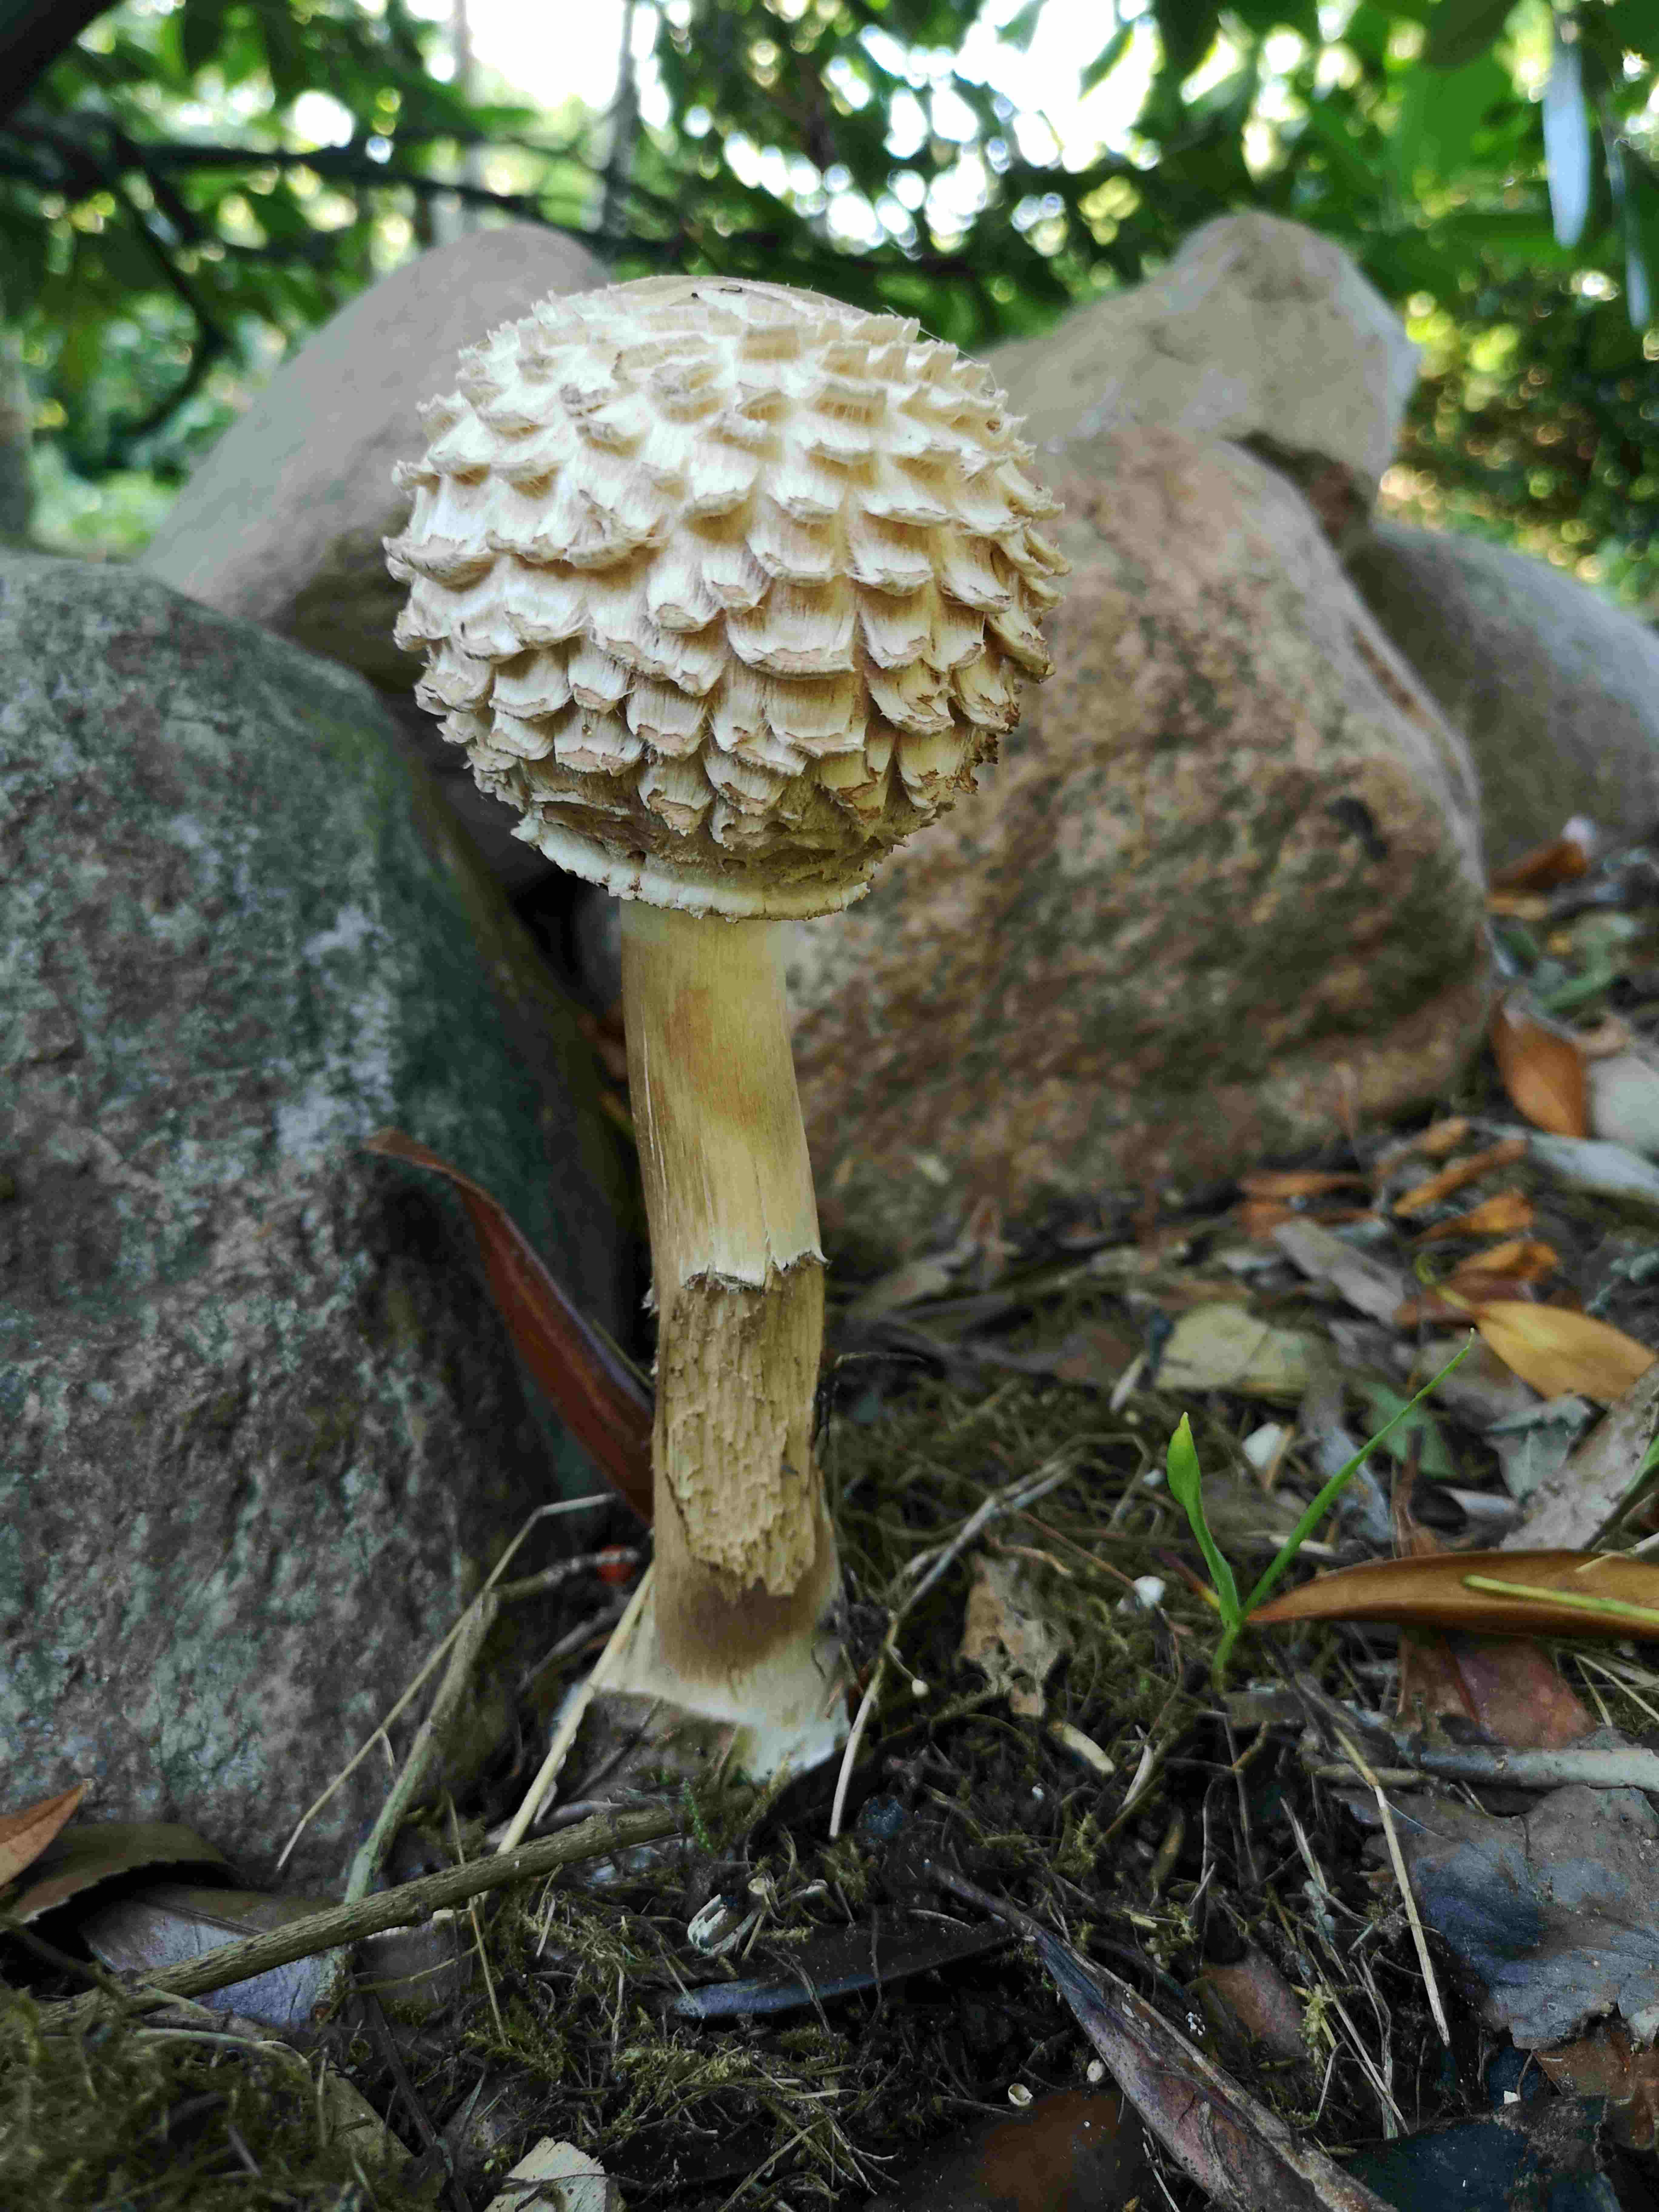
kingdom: Fungi
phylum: Basidiomycota
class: Agaricomycetes
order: Agaricales
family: Agaricaceae
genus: Chlorophyllum
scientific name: Chlorophyllum
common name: rabarberhat
